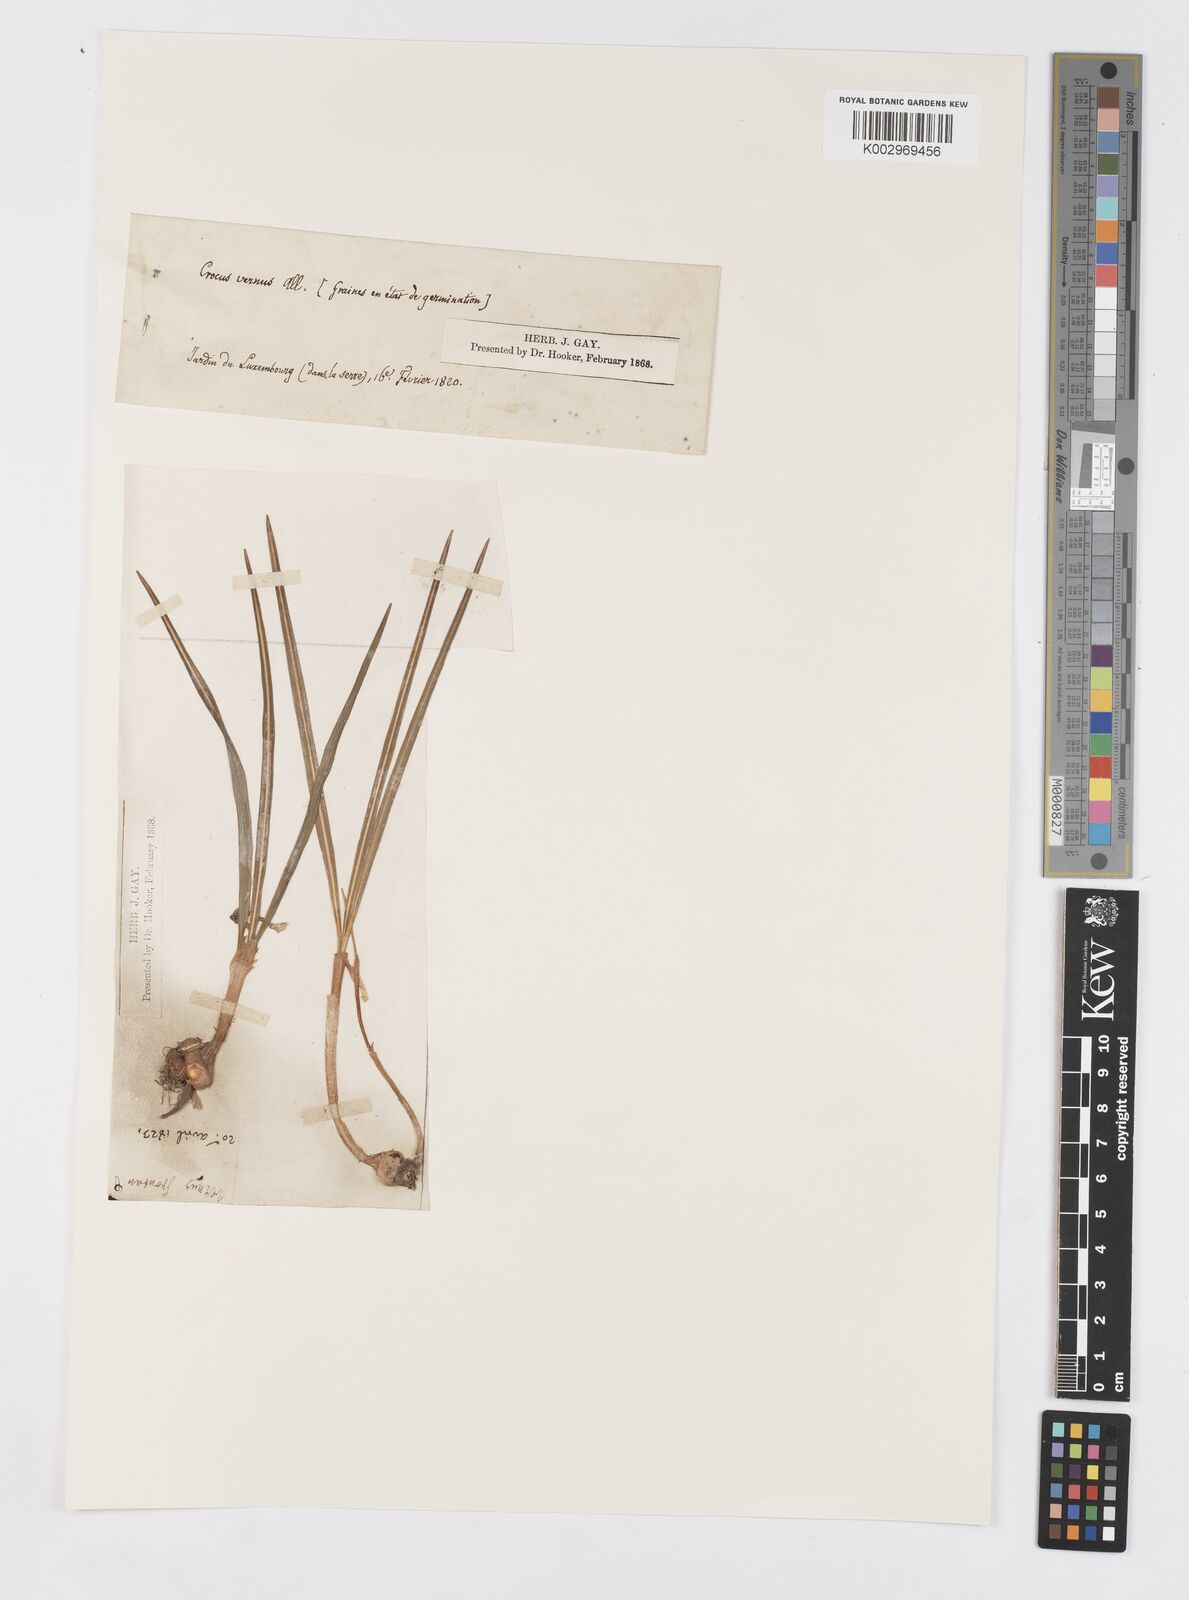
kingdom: Plantae
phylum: Tracheophyta
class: Liliopsida
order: Asparagales
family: Iridaceae
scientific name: Iridaceae
